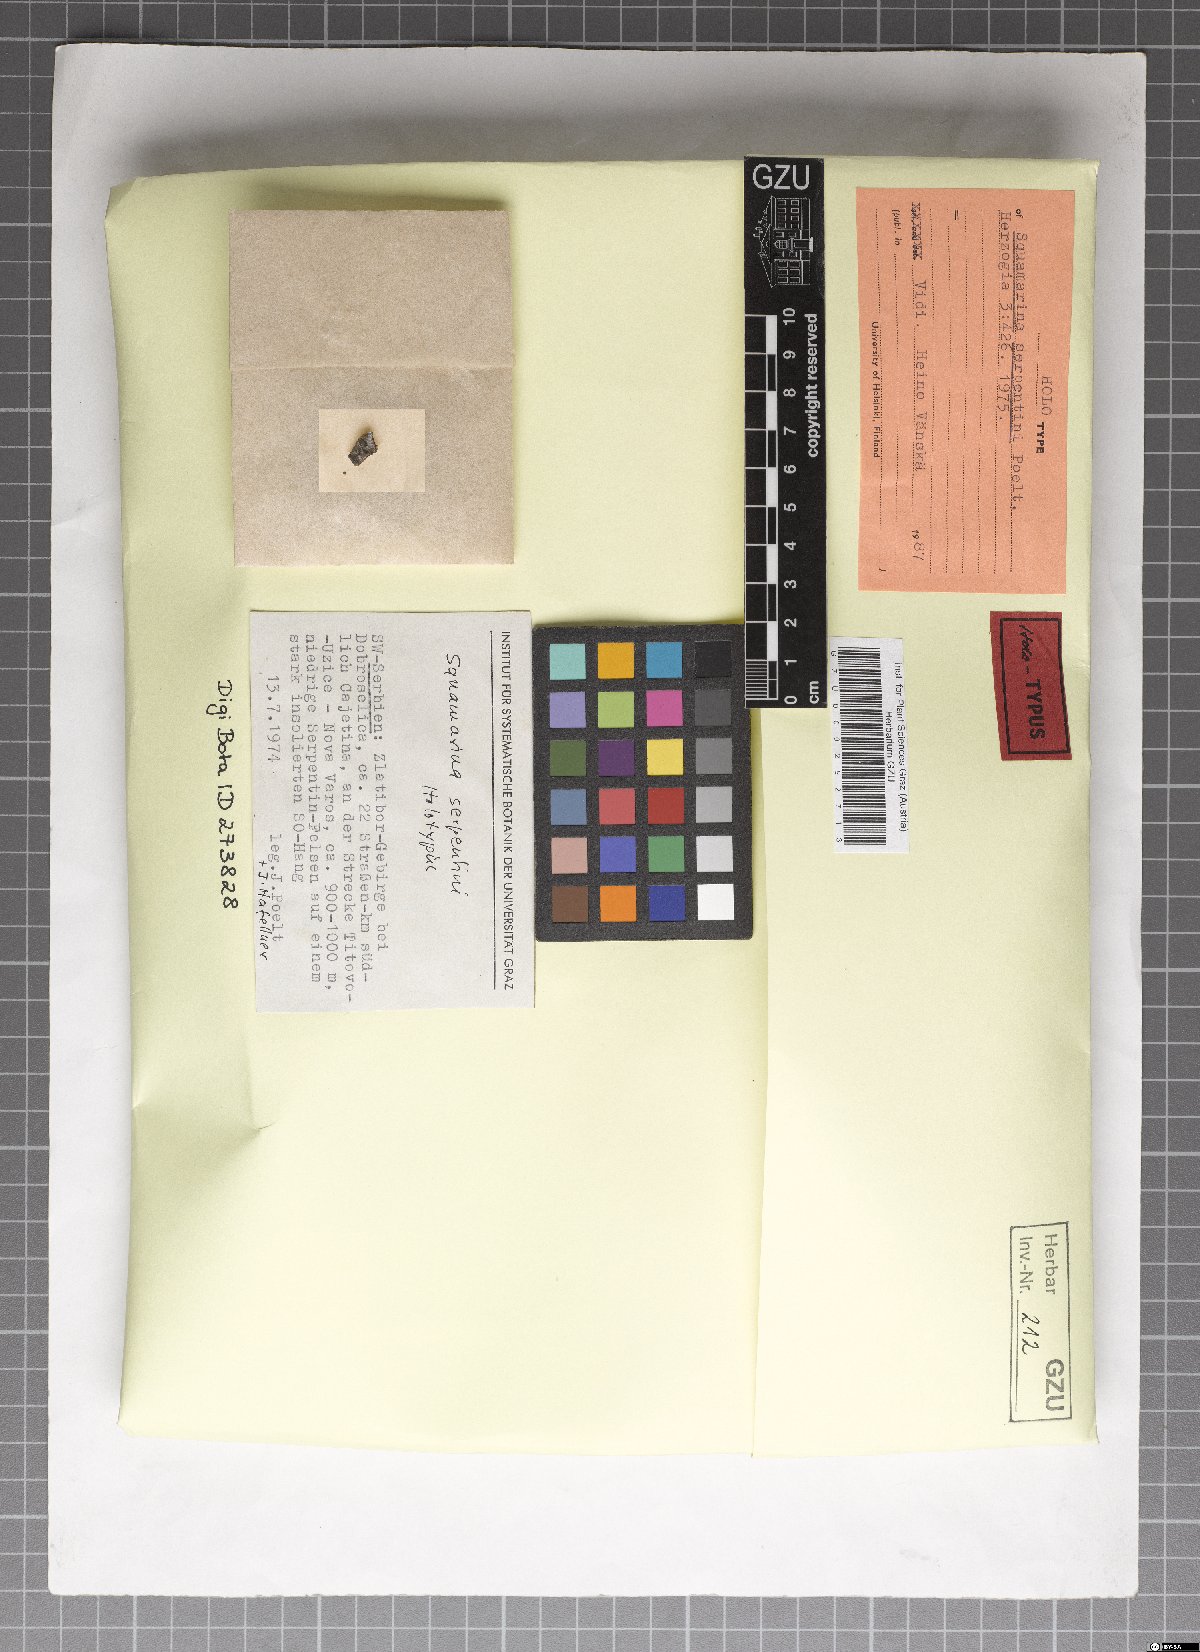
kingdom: Fungi
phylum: Ascomycota
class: Lecanoromycetes
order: Lecanorales
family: Stereocaulaceae
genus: Squamarina
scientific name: Squamarina serpentini
